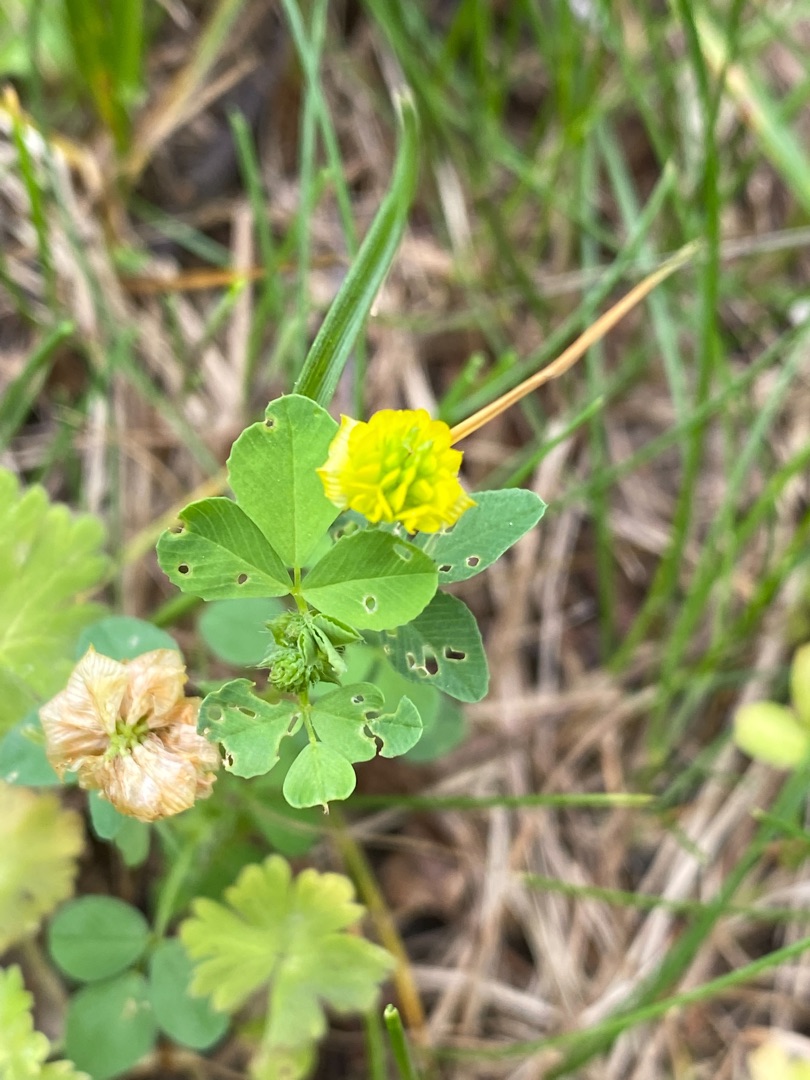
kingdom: Plantae
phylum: Tracheophyta
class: Magnoliopsida
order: Fabales
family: Fabaceae
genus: Trifolium
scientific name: Trifolium campestre
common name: Gul kløver
